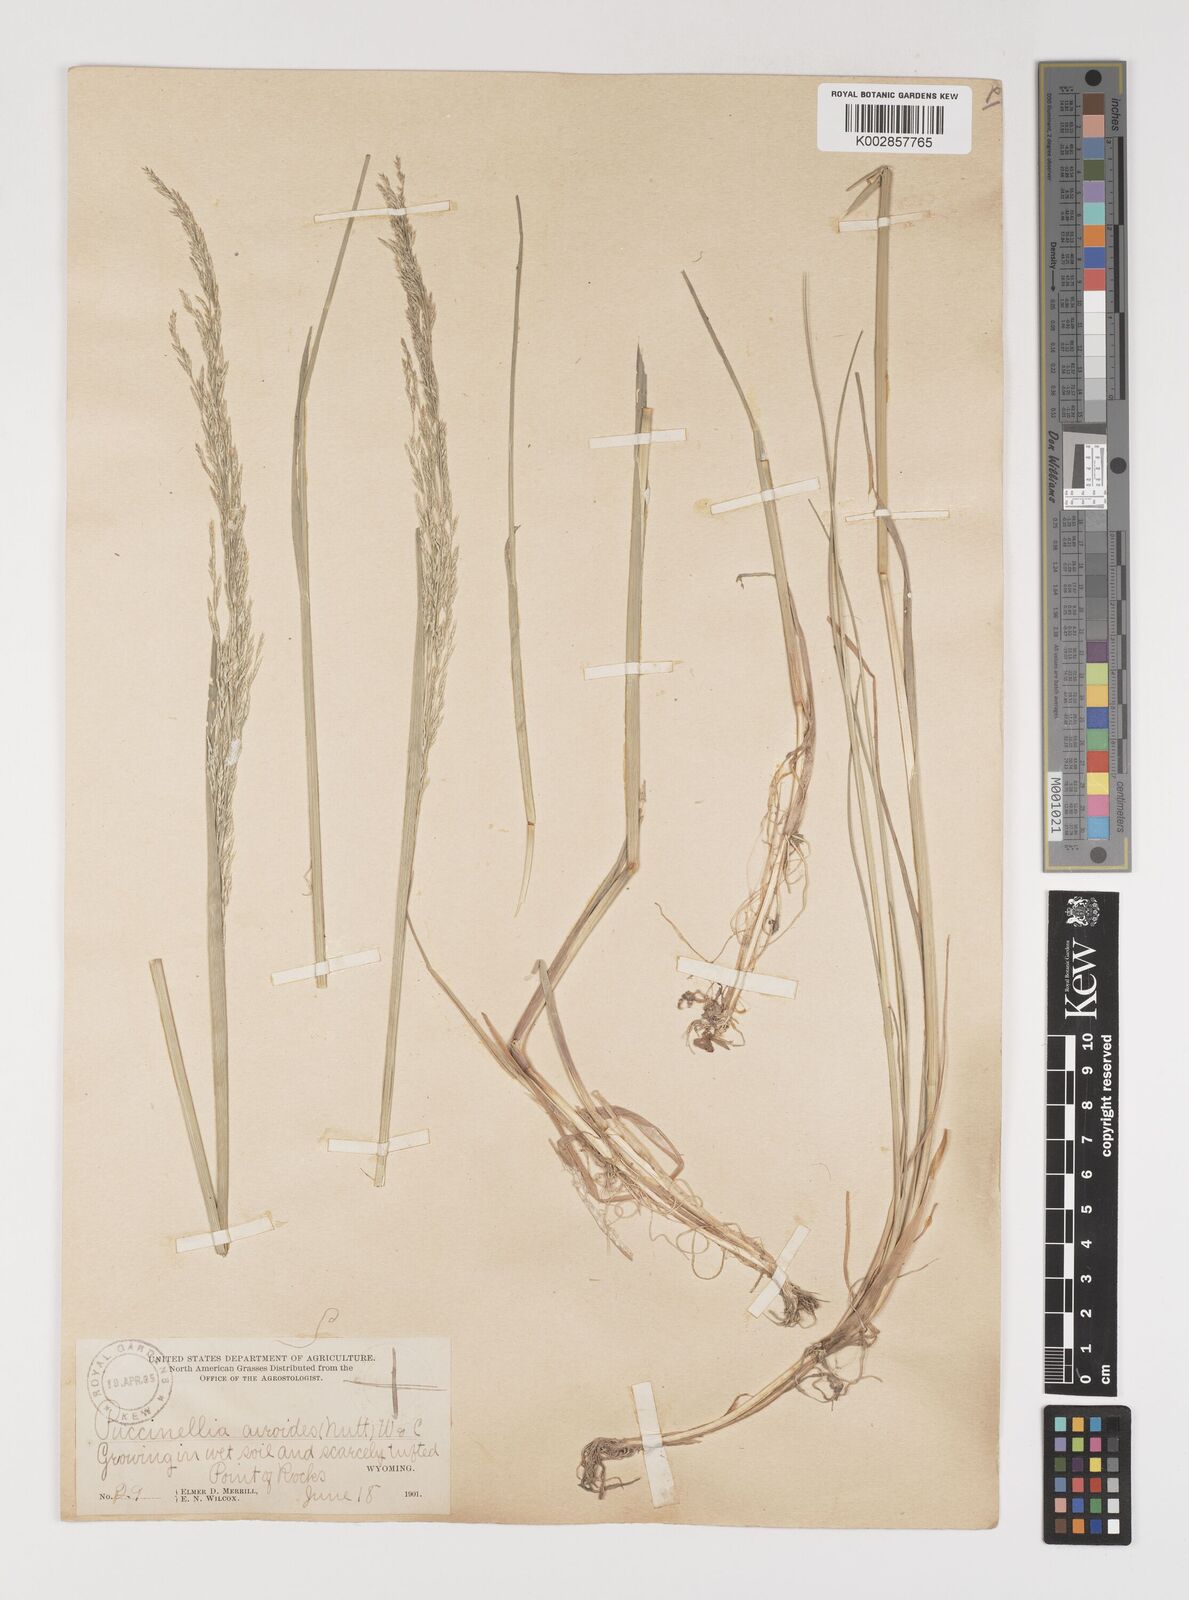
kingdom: Plantae
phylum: Tracheophyta
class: Liliopsida
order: Poales
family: Poaceae
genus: Puccinellia
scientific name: Puccinellia nuttalliana
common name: Nuttall's alkali grass
